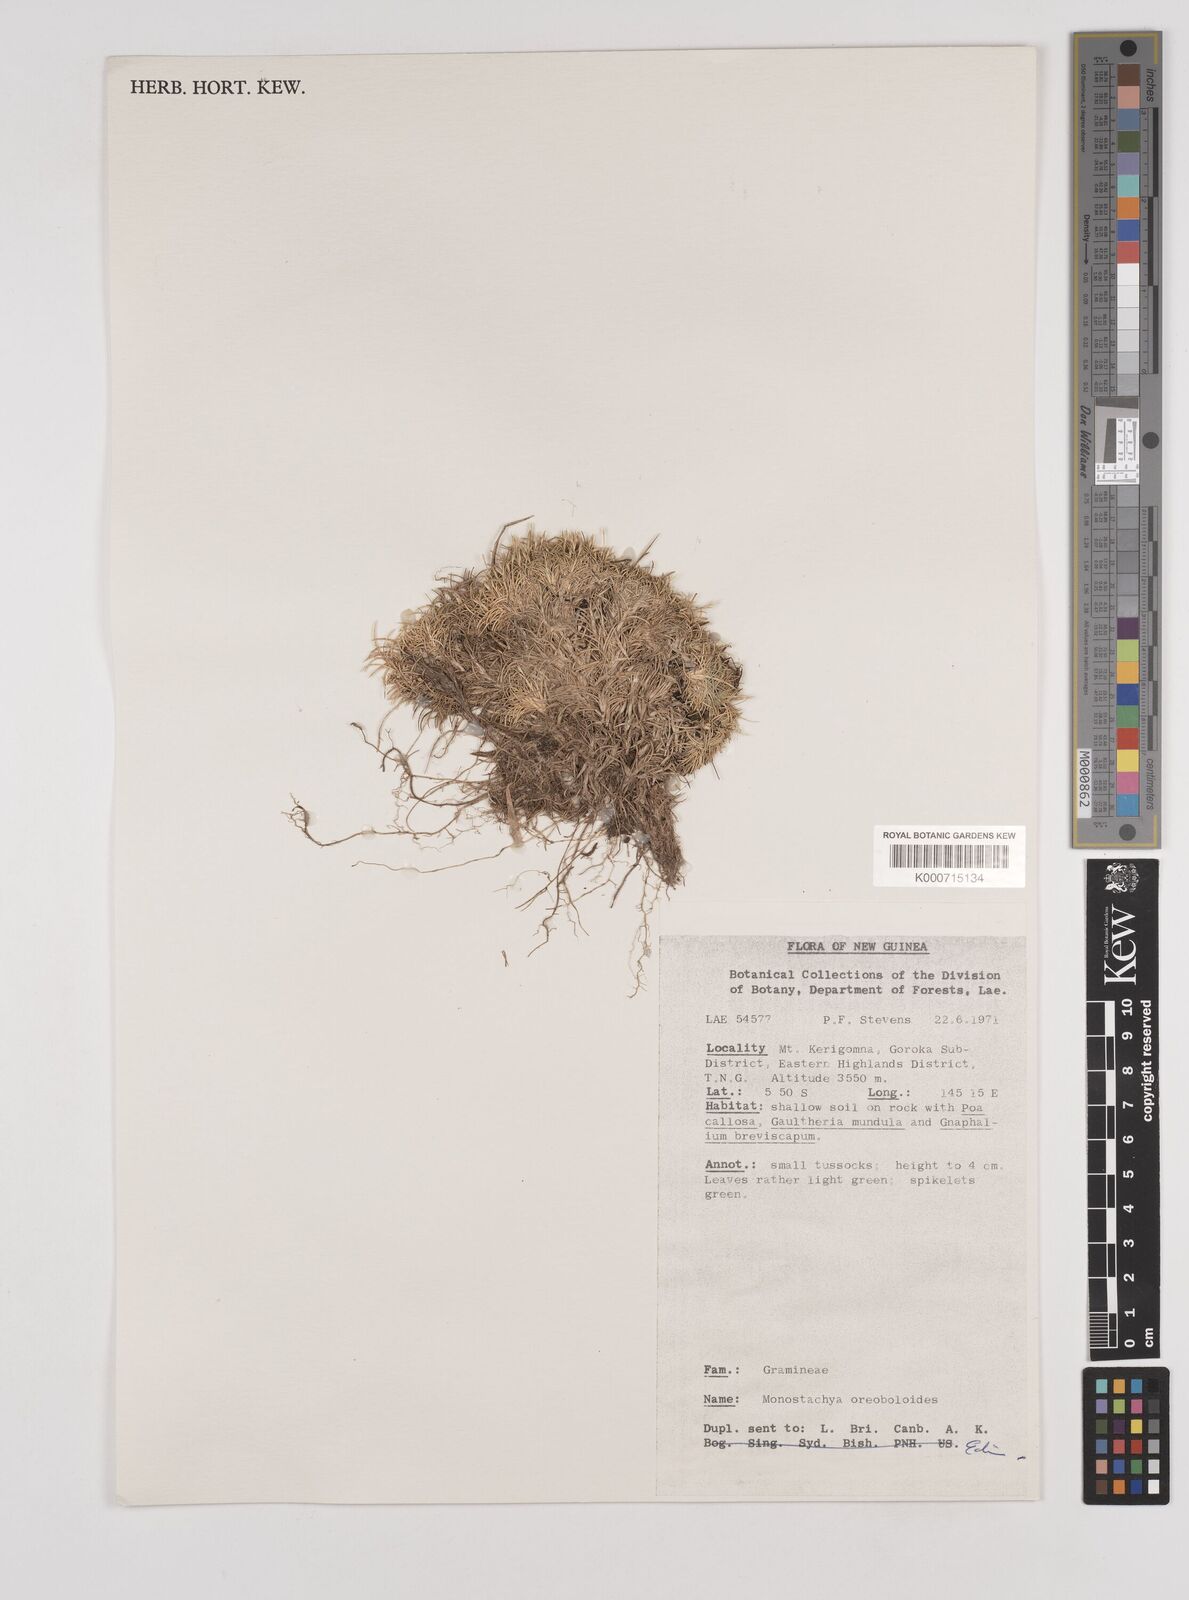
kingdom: Plantae
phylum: Tracheophyta
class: Liliopsida
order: Poales
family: Poaceae
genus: Rytidosperma
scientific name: Rytidosperma oreoboloides
